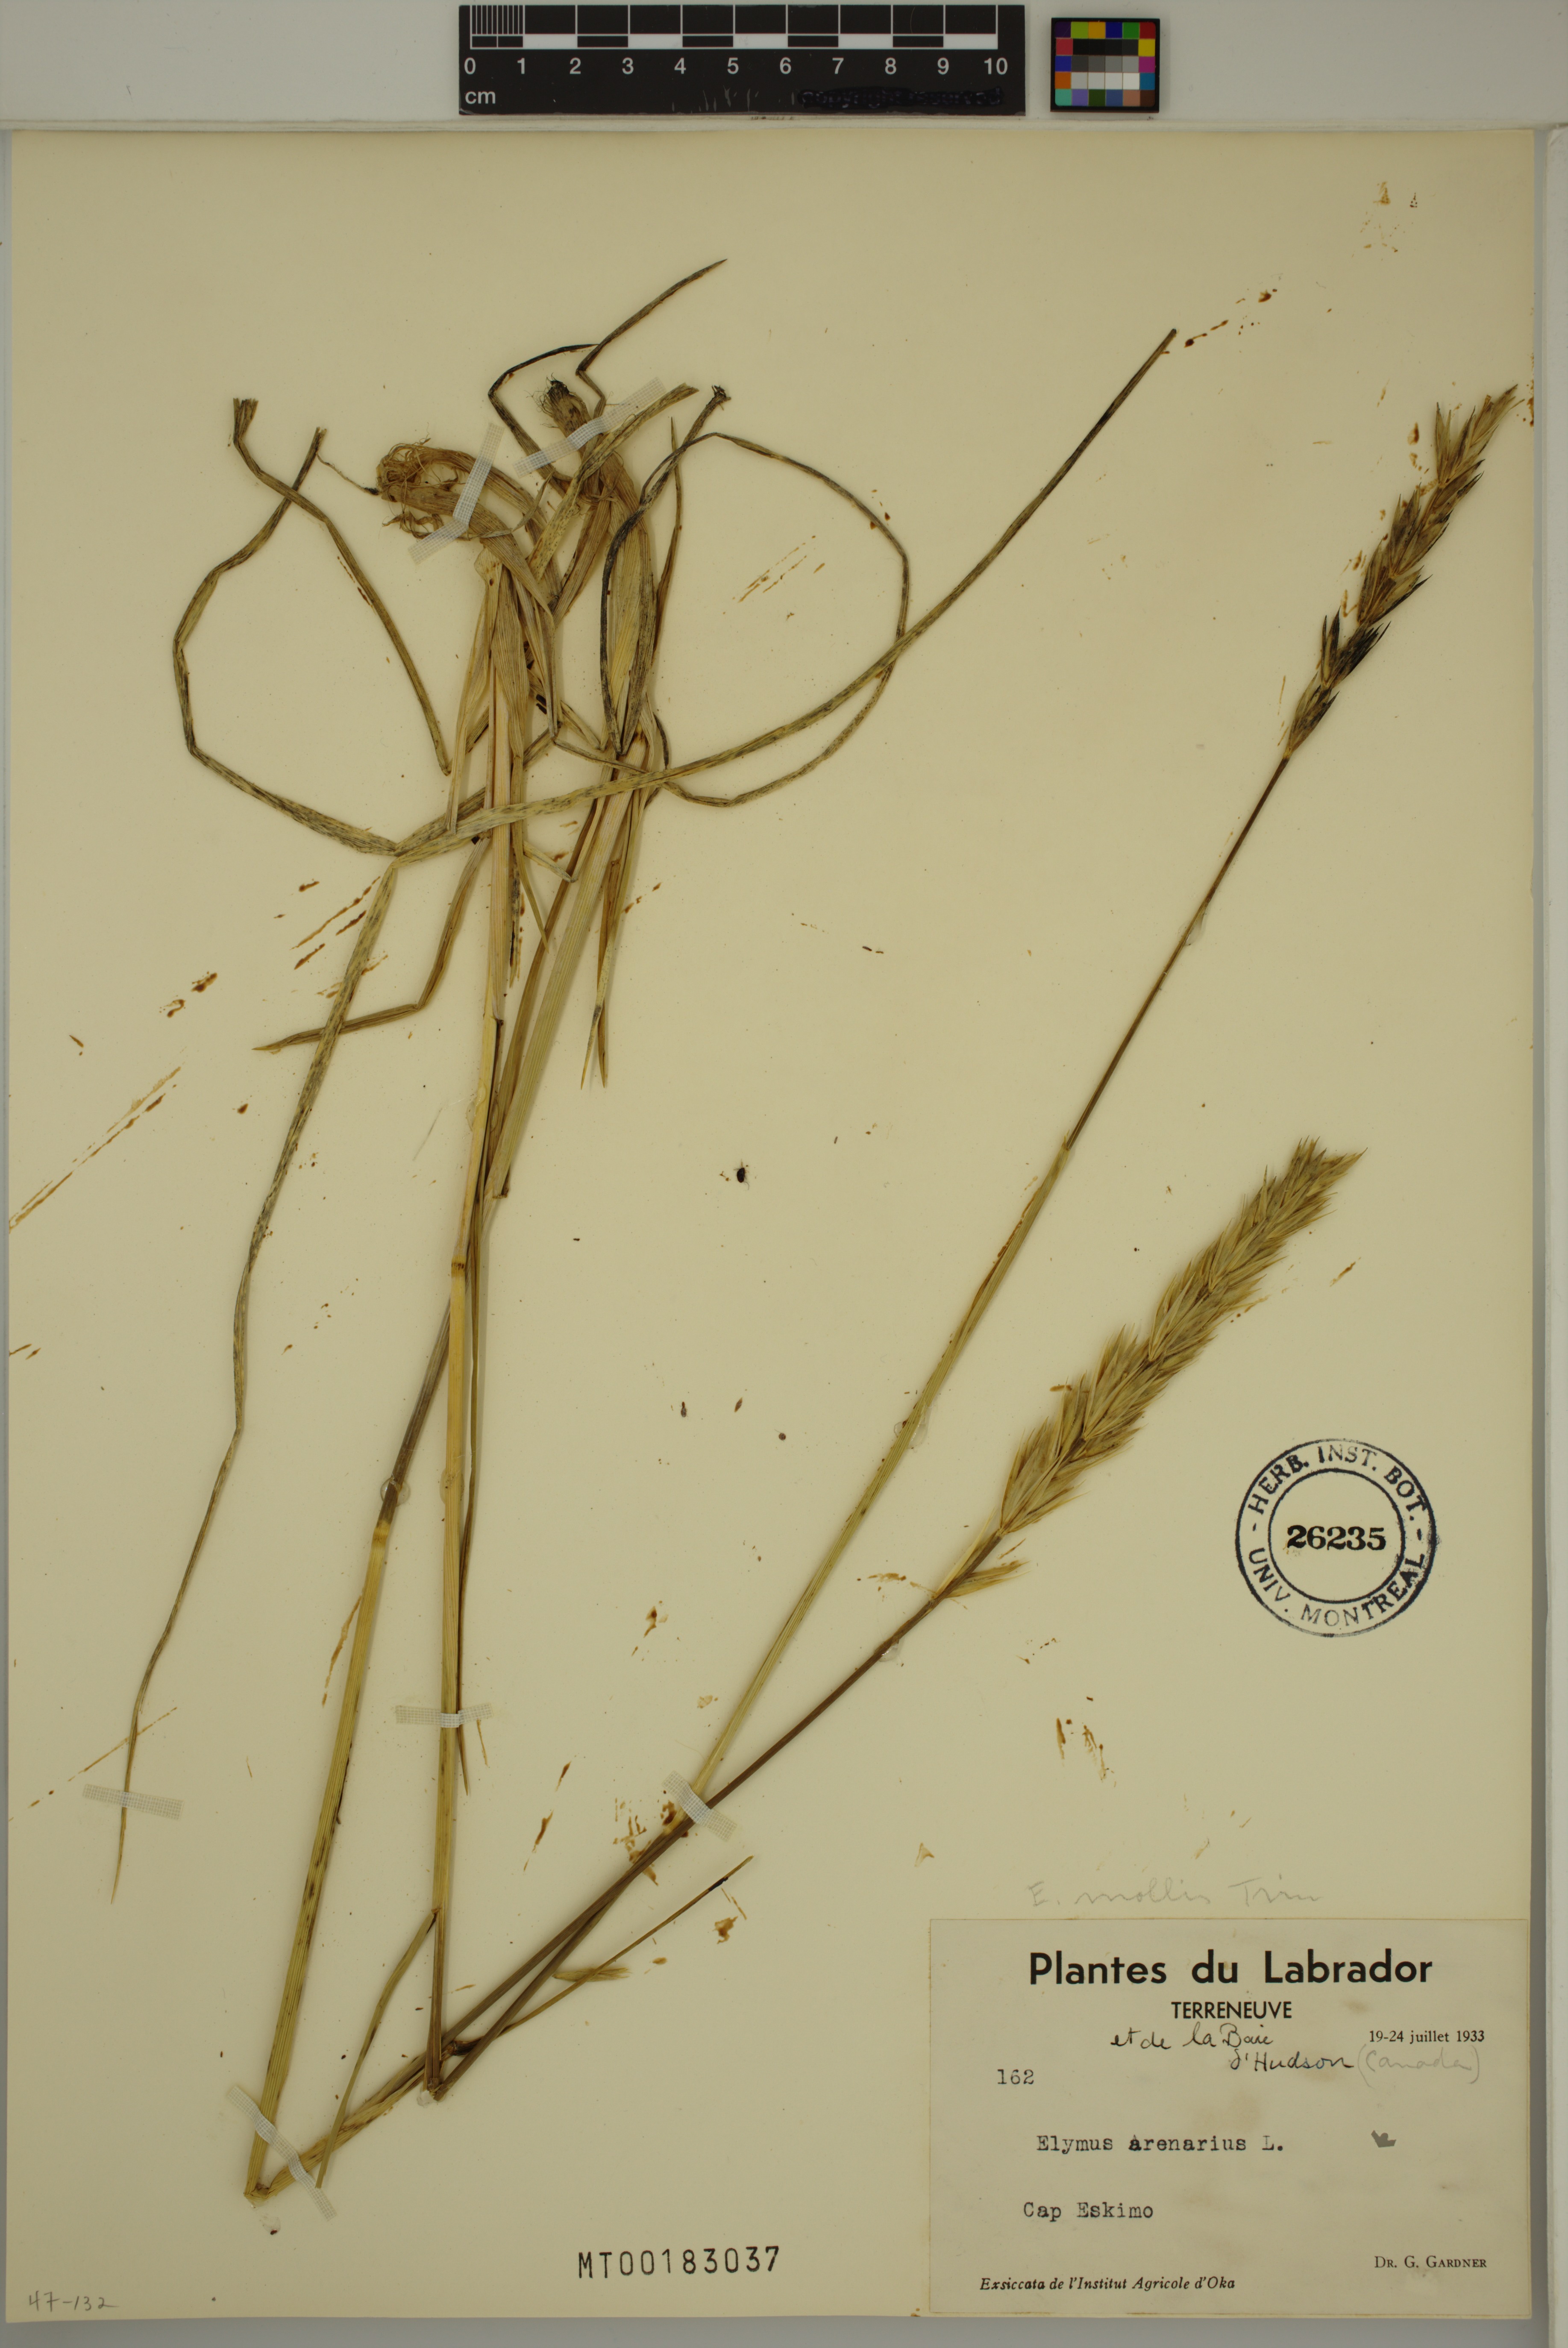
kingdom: Plantae
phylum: Tracheophyta
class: Liliopsida
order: Poales
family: Poaceae
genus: Leymus
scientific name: Leymus mollis
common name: American dune grass
